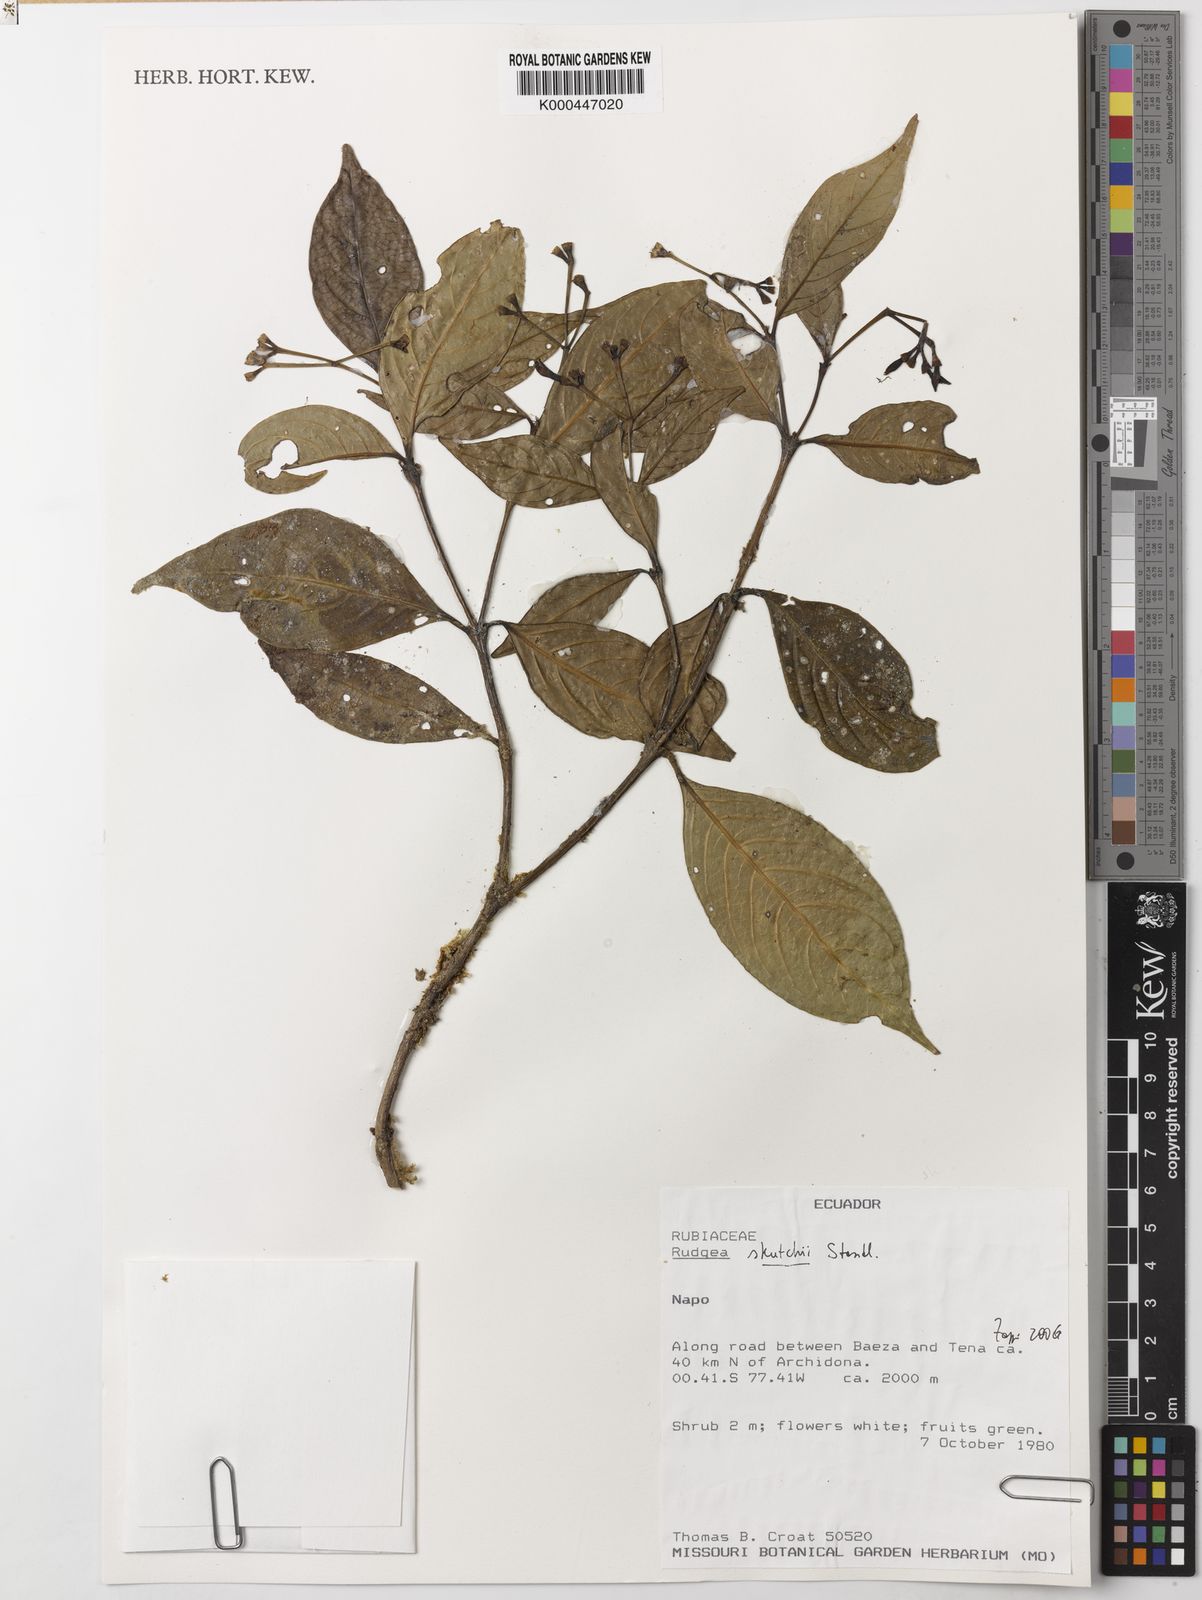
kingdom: Plantae
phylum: Tracheophyta
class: Magnoliopsida
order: Gentianales
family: Rubiaceae
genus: Rudgea
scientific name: Rudgea skutchii
